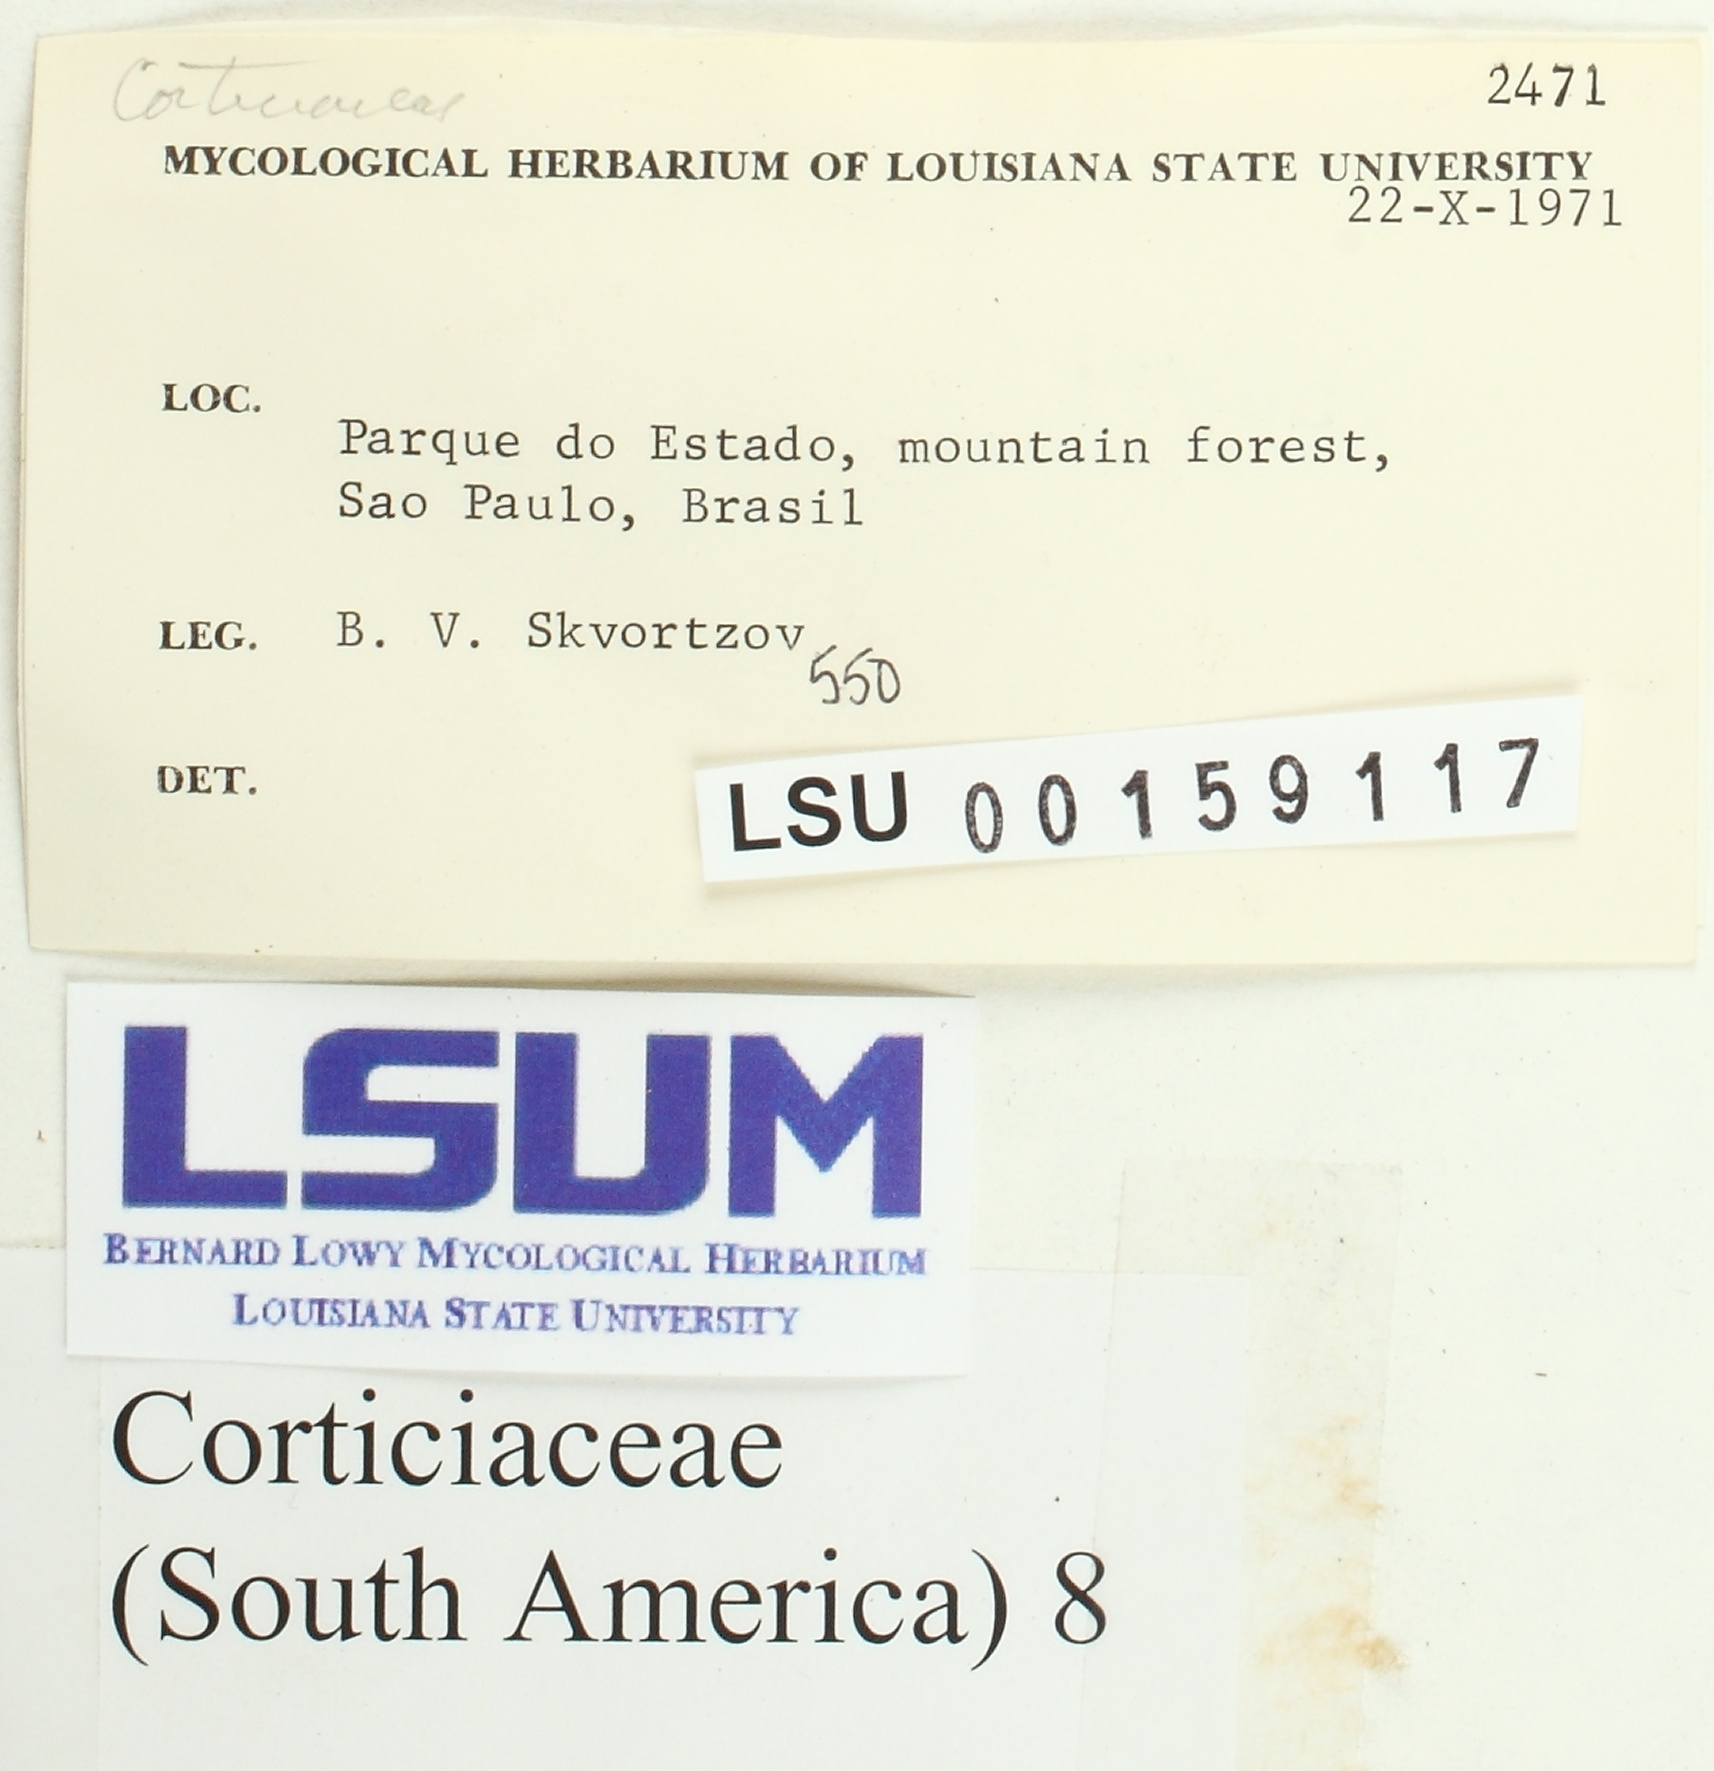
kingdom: Fungi
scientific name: Fungi
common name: Fungi
